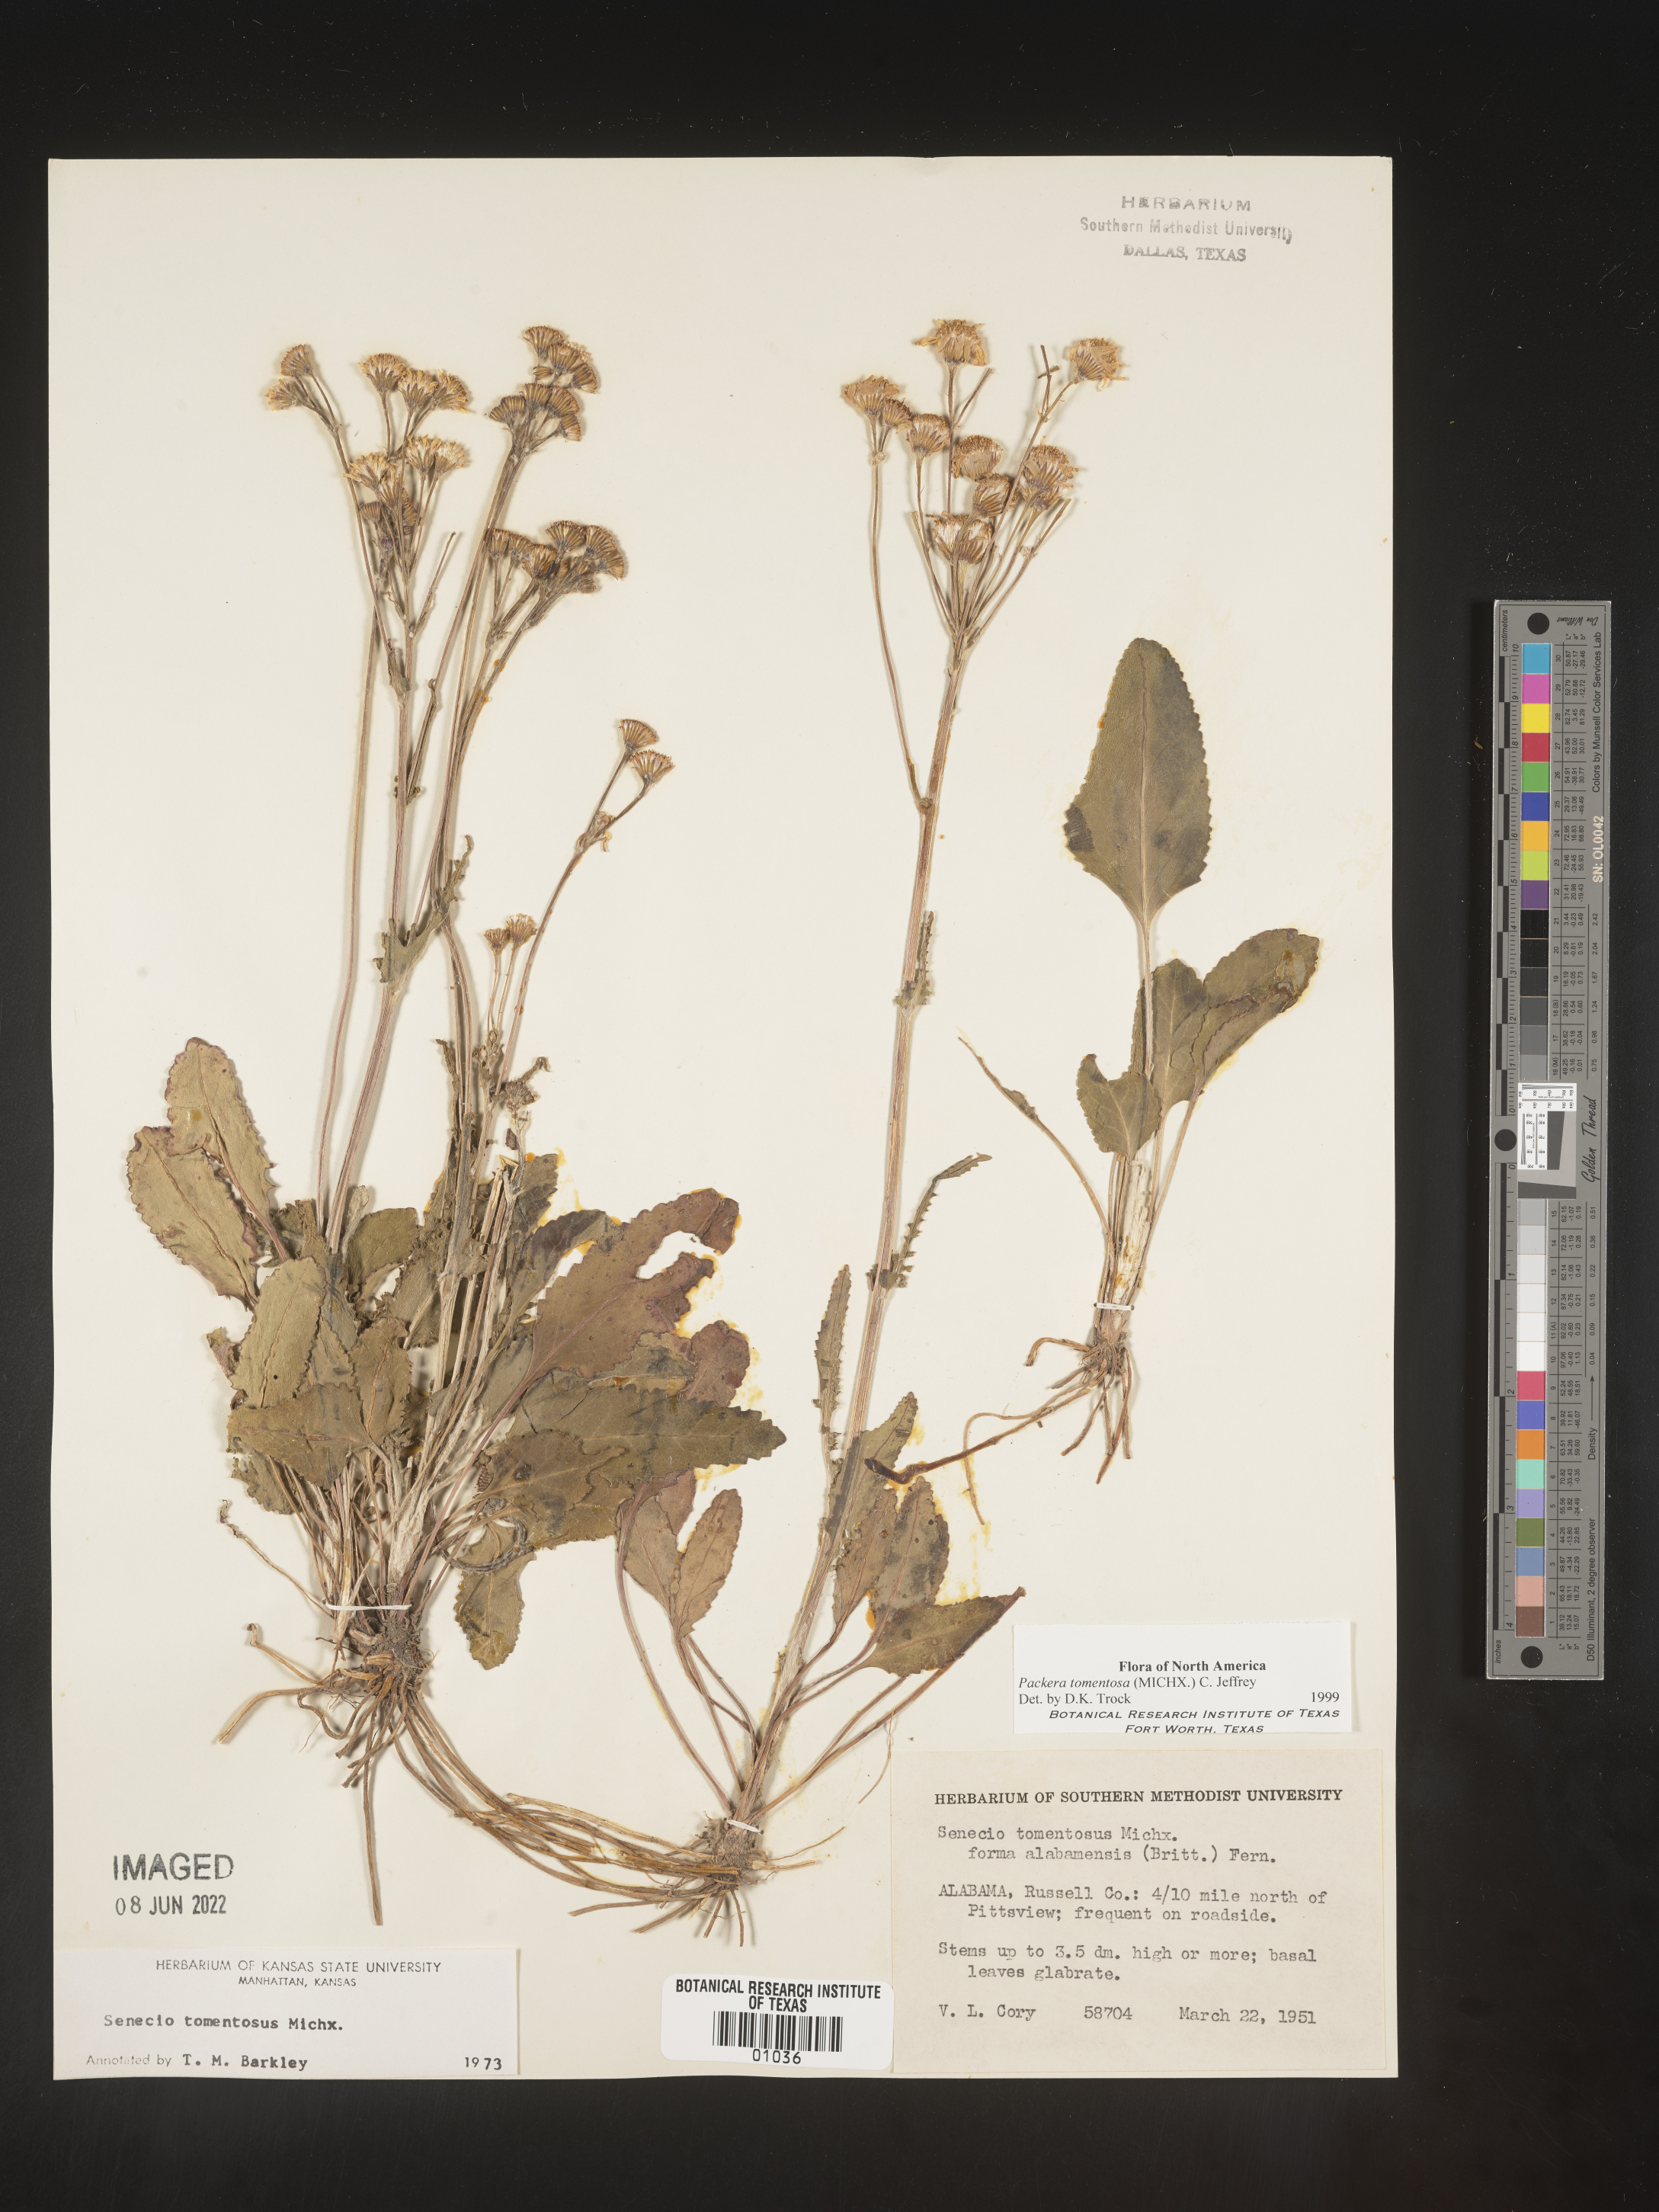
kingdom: Plantae
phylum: Tracheophyta
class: Magnoliopsida
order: Asterales
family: Asteraceae
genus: Packera
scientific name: Packera dubia
